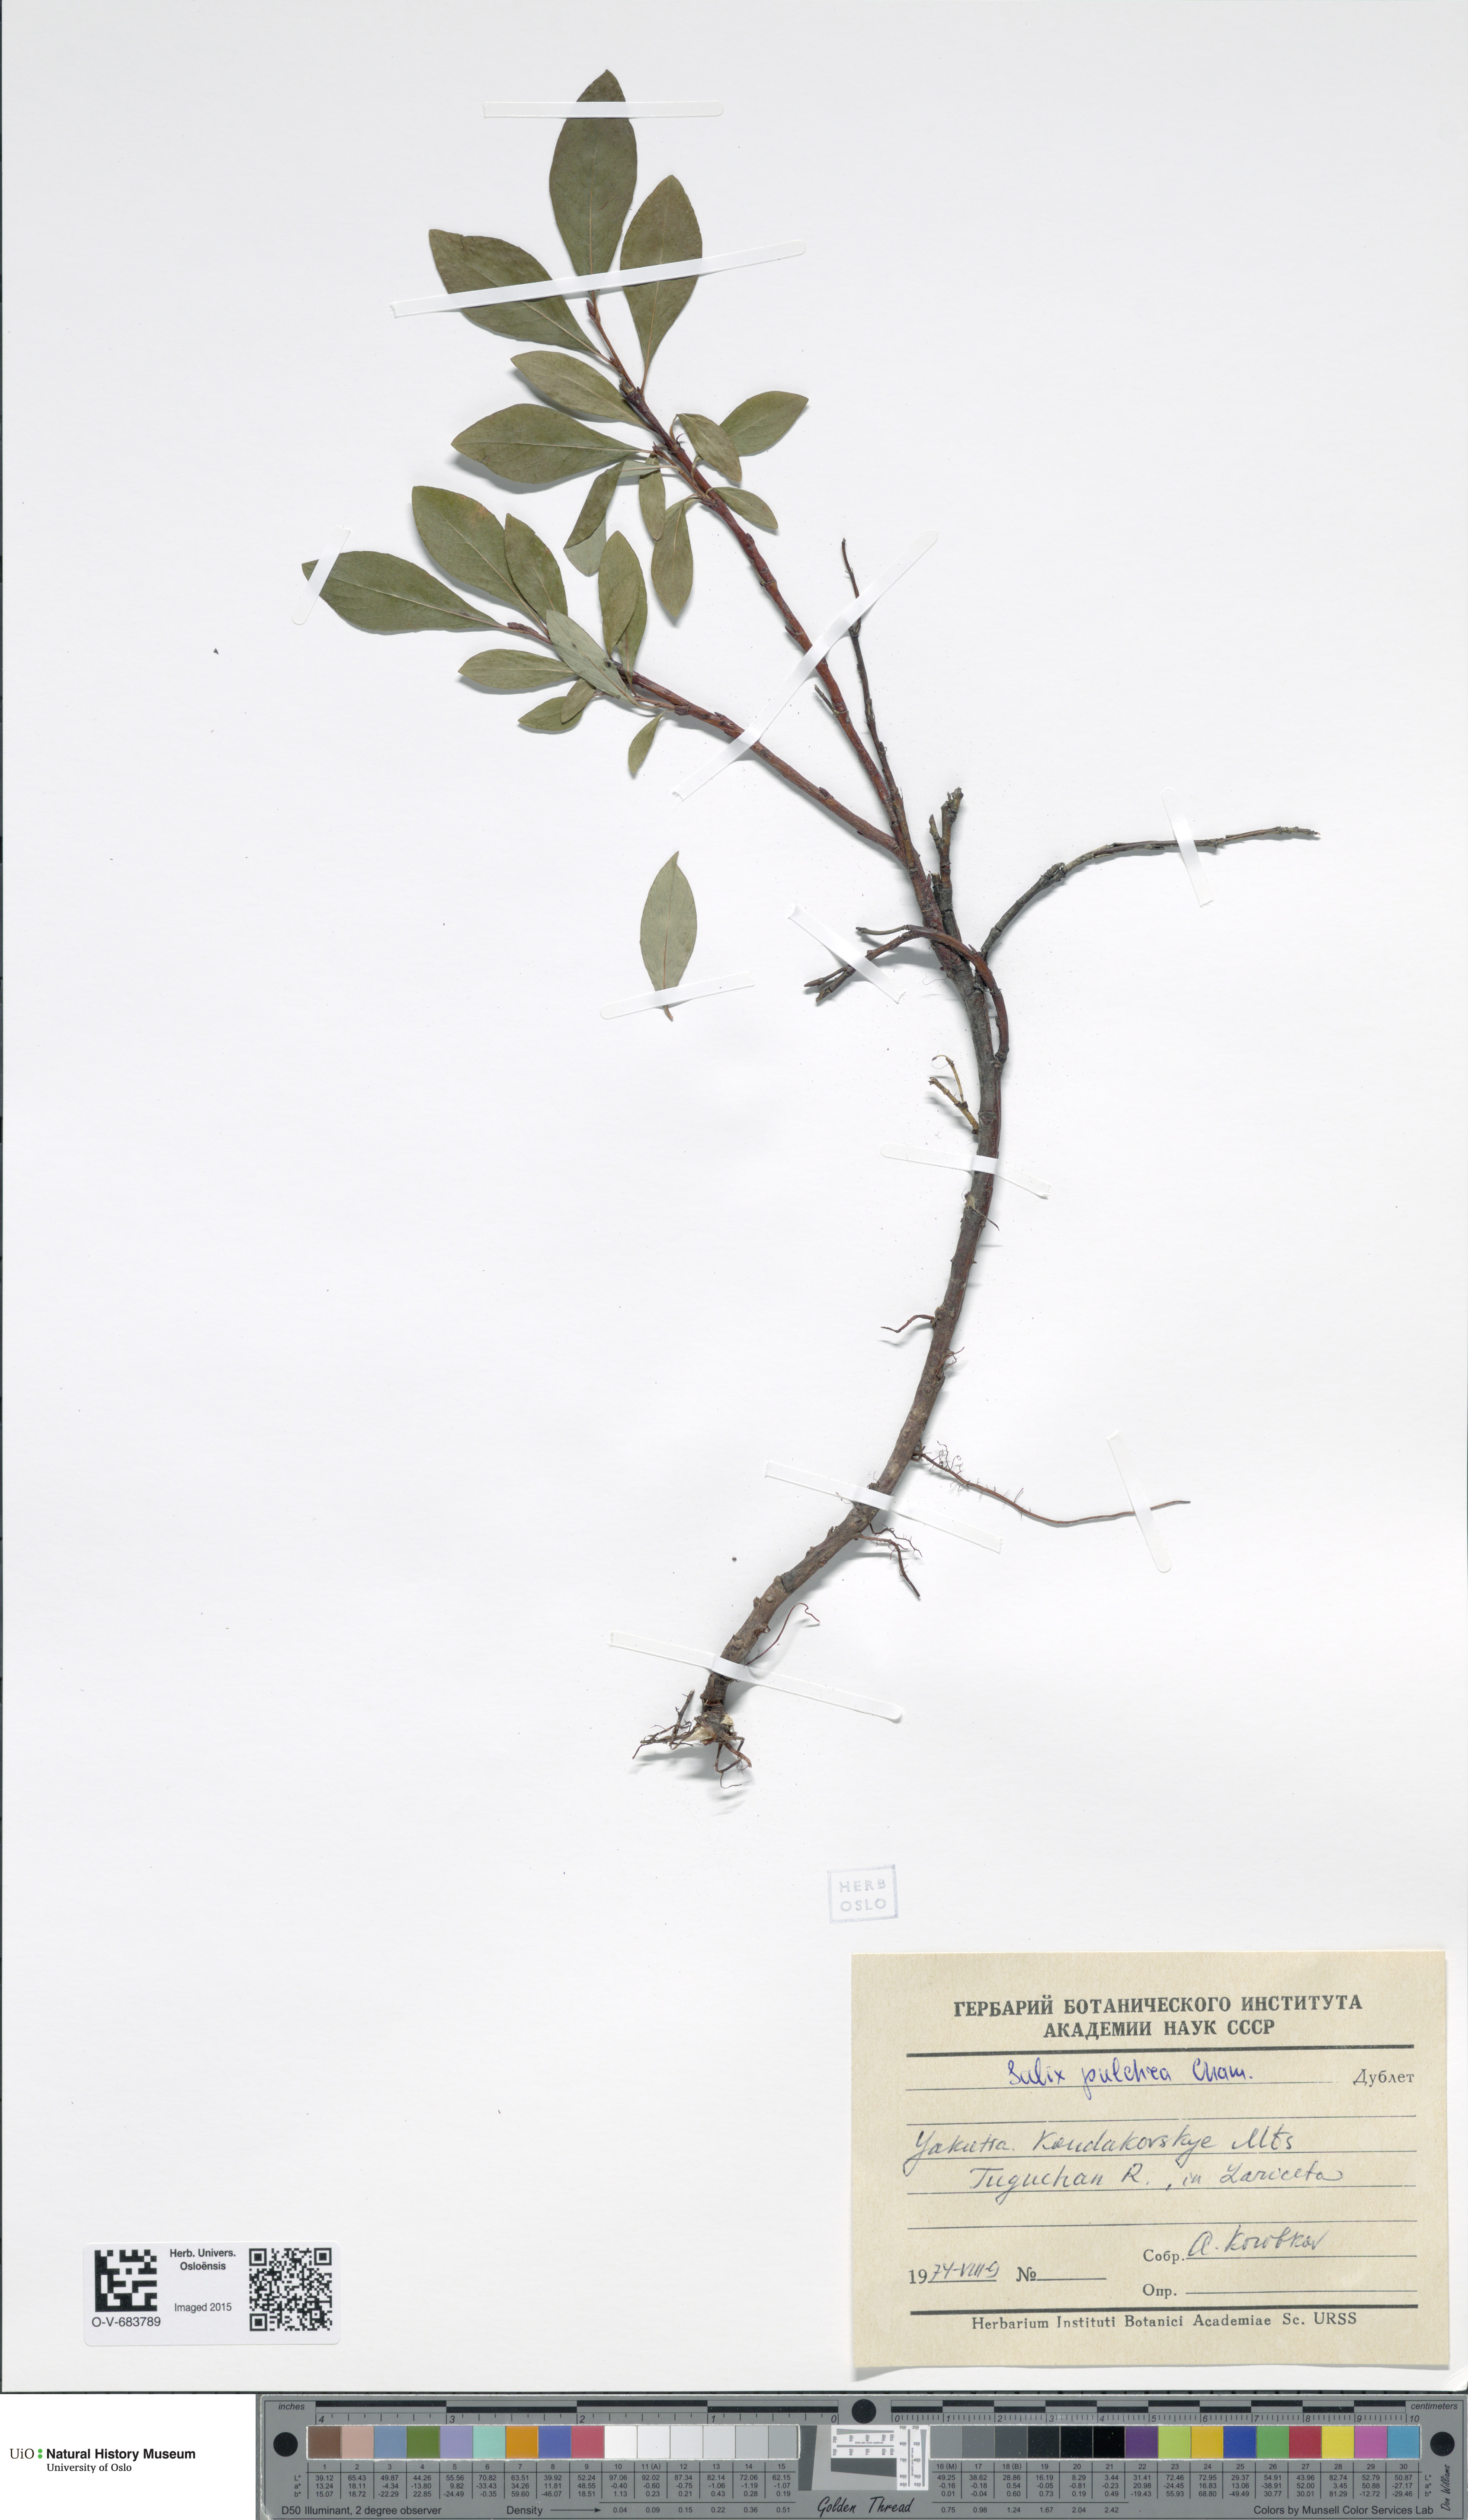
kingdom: Plantae
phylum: Tracheophyta
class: Magnoliopsida
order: Malpighiales
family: Salicaceae
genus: Salix
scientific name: Salix pulchra
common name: Diamond-leaved willow
